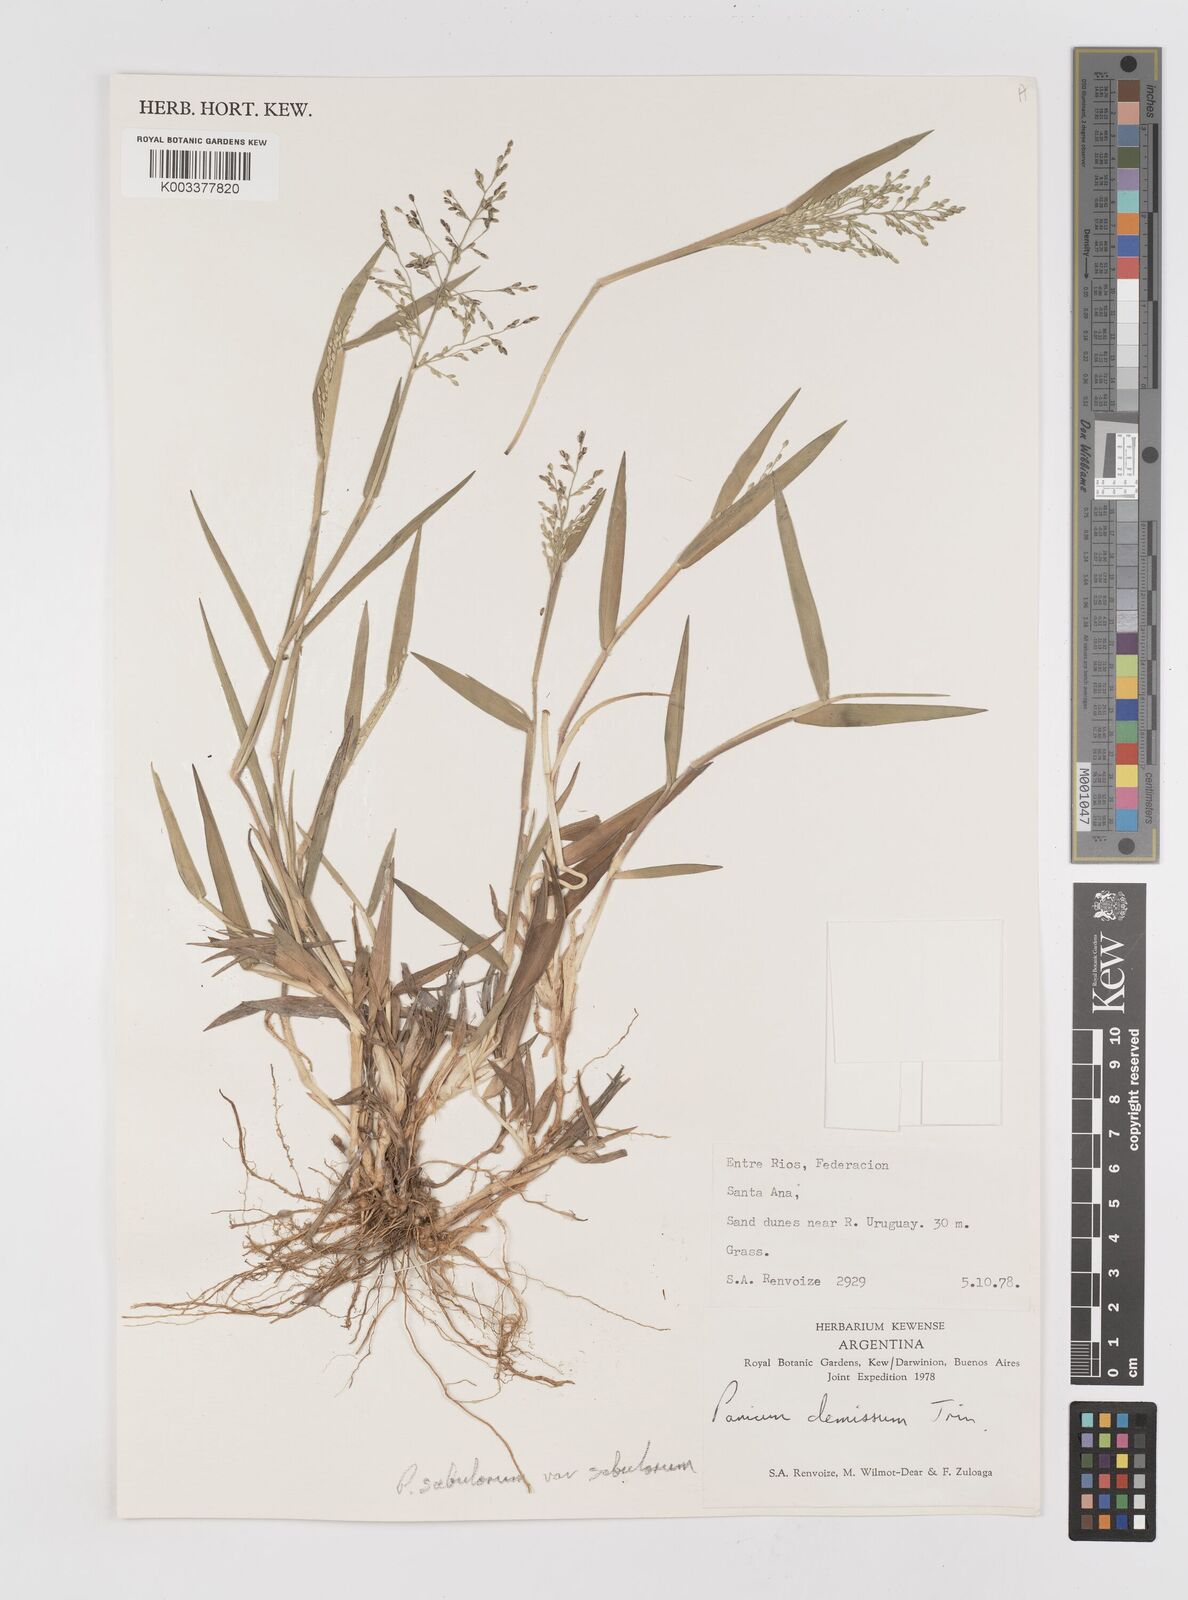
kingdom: Plantae
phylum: Tracheophyta
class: Liliopsida
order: Poales
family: Poaceae
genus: Dichanthelium
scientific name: Dichanthelium sabulorum
